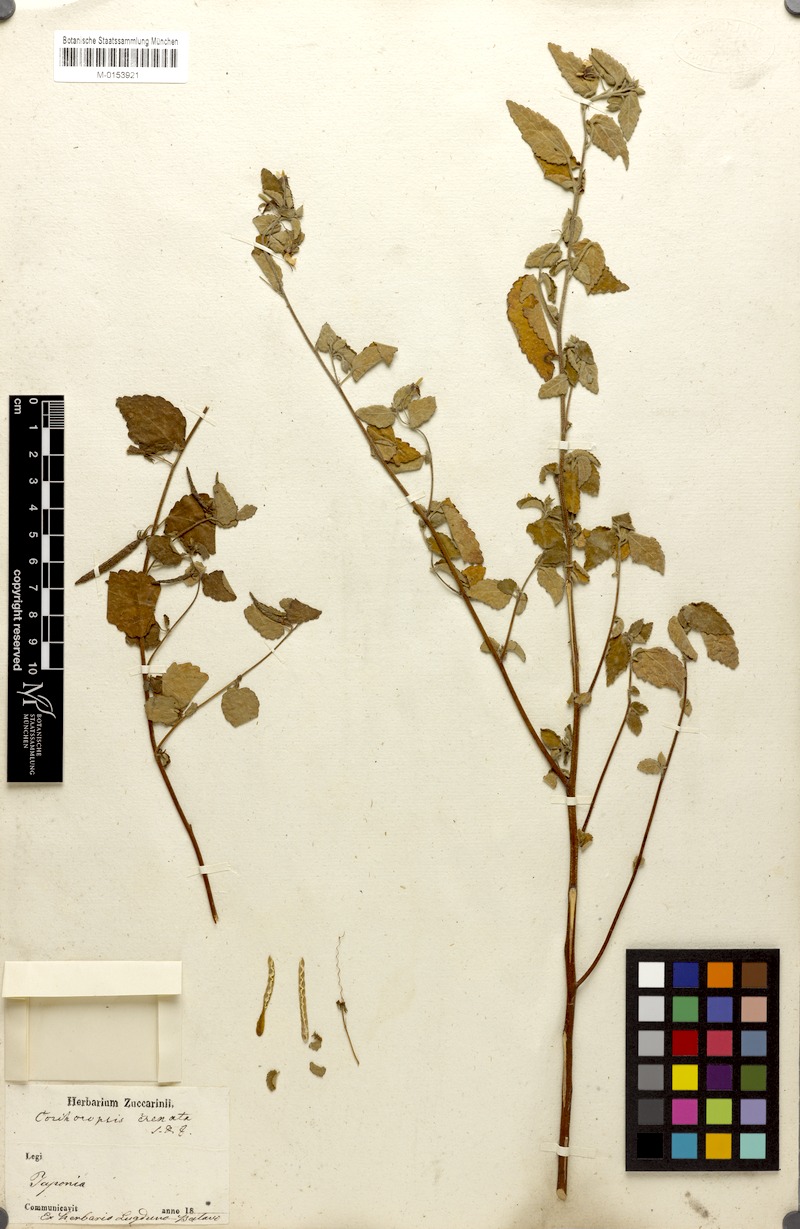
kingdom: Plantae
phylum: Tracheophyta
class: Magnoliopsida
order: Malvales
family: Malvaceae
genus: Corchoropsis
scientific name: Corchoropsis crenata
